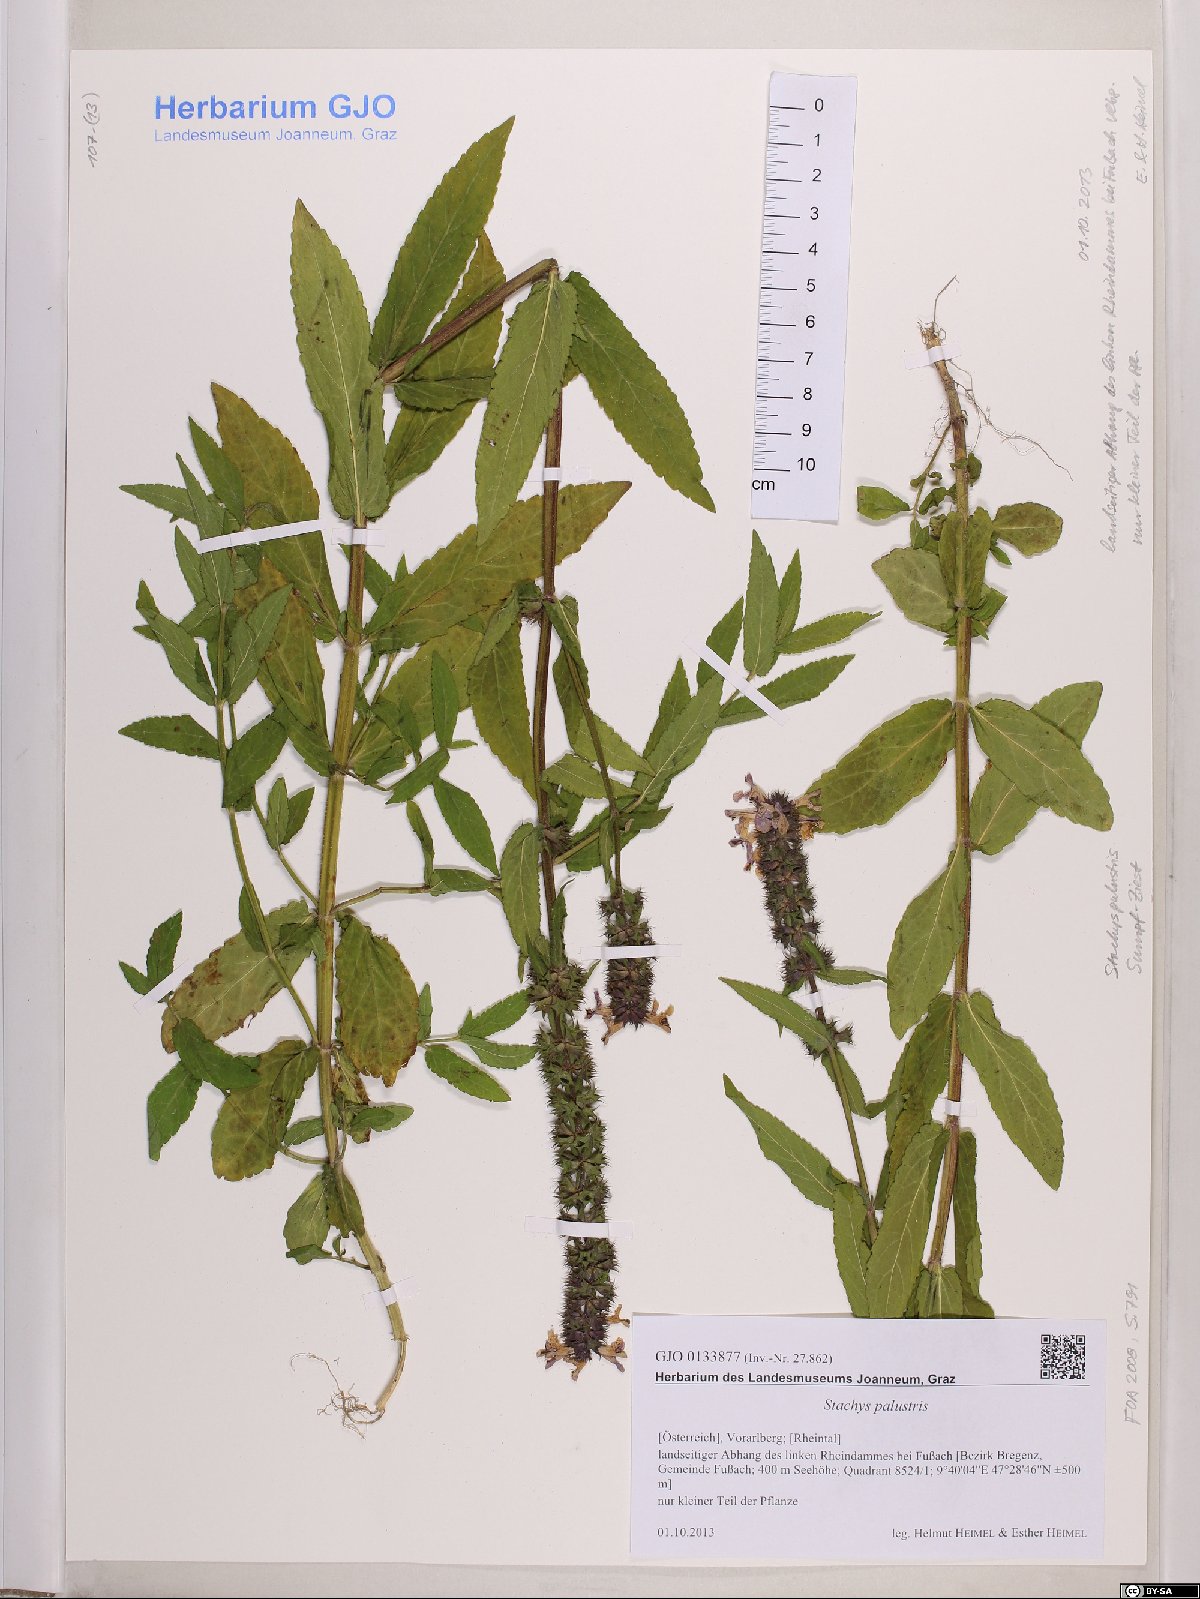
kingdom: Plantae
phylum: Tracheophyta
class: Magnoliopsida
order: Lamiales
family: Lamiaceae
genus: Stachys
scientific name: Stachys palustris
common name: Marsh woundwort
